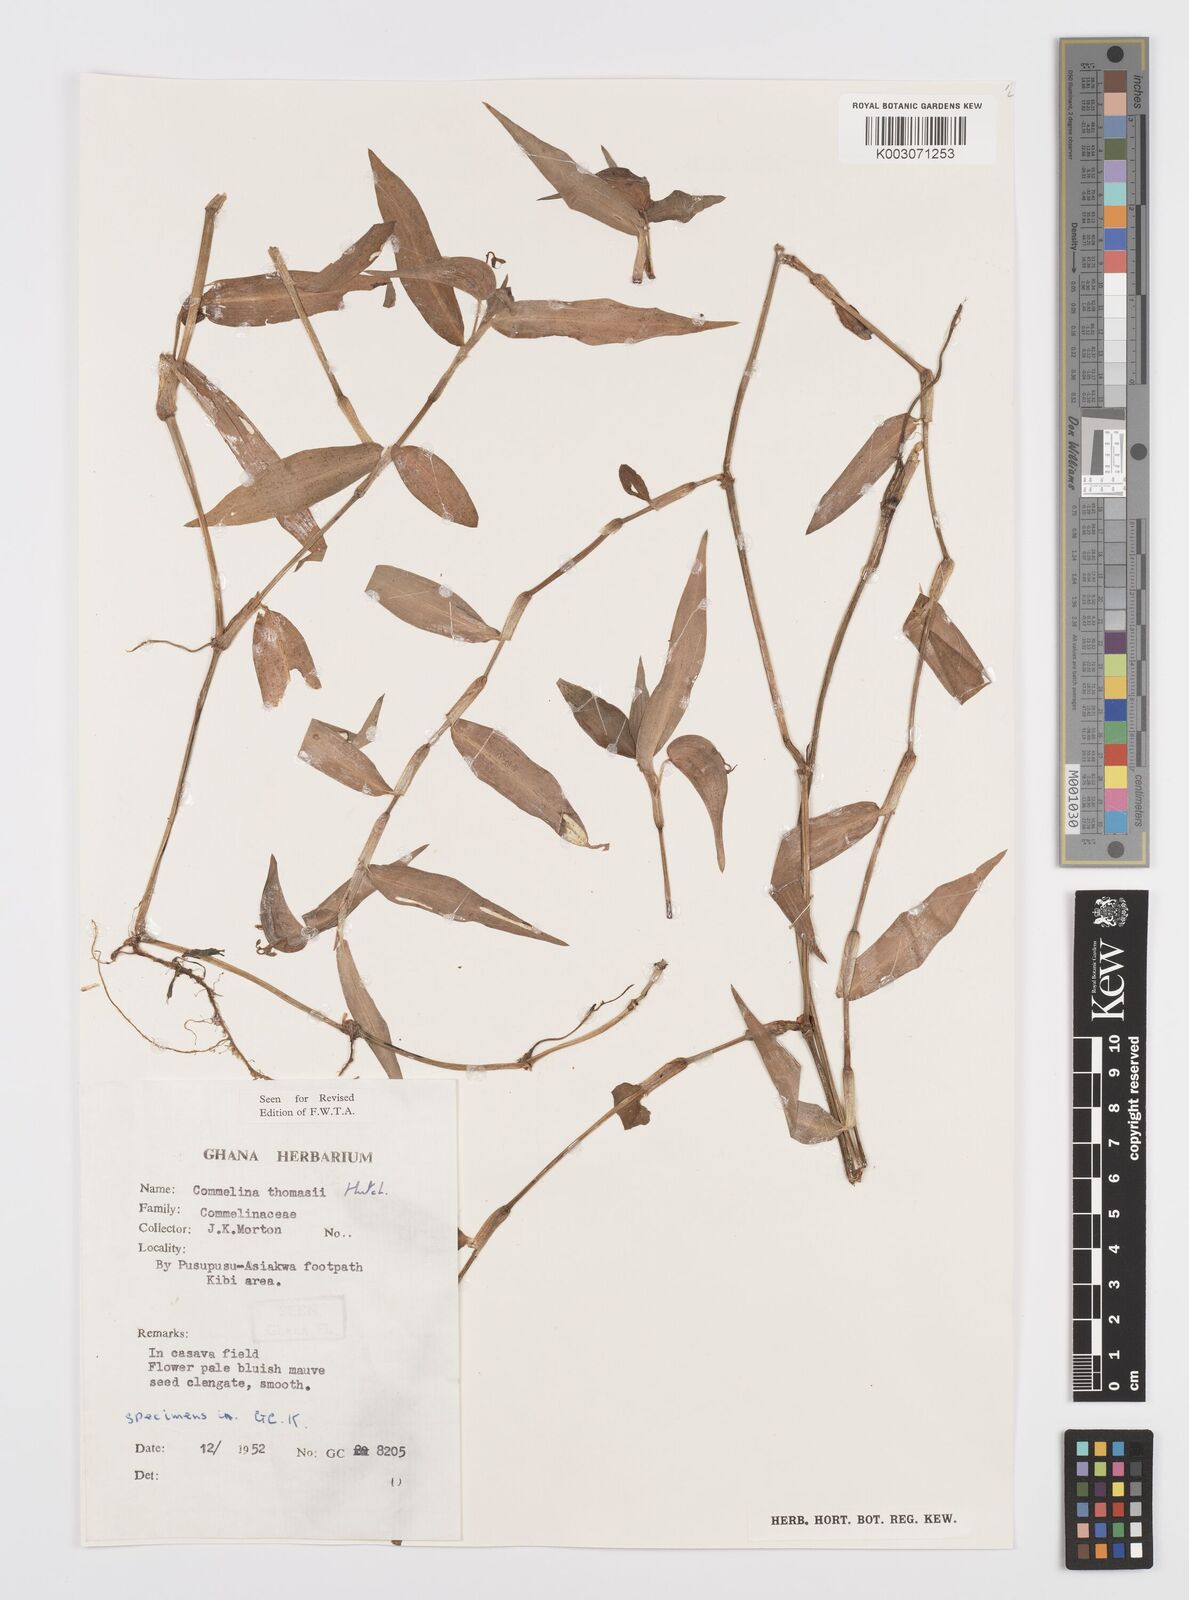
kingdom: Plantae
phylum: Tracheophyta
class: Liliopsida
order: Commelinales
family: Commelinaceae
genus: Commelina
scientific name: Commelina acutispatha
